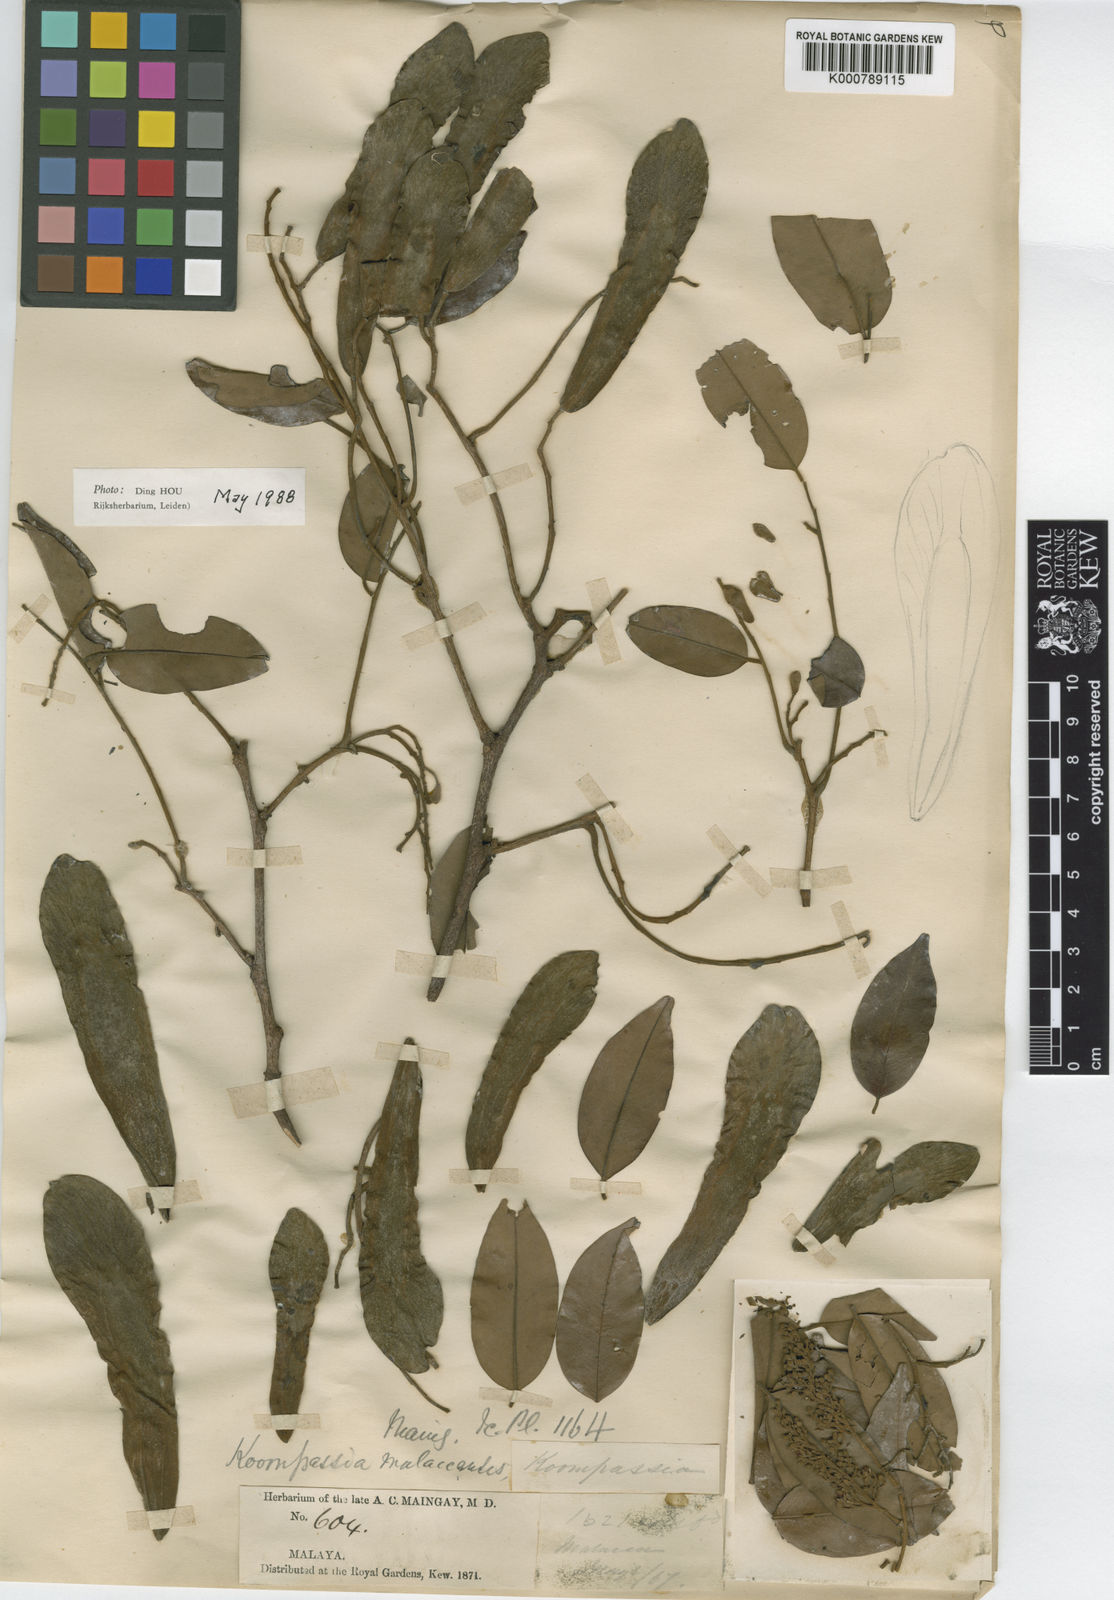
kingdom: Plantae
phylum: Tracheophyta
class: Magnoliopsida
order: Fabales
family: Fabaceae
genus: Koompassia
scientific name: Koompassia malaccensis
